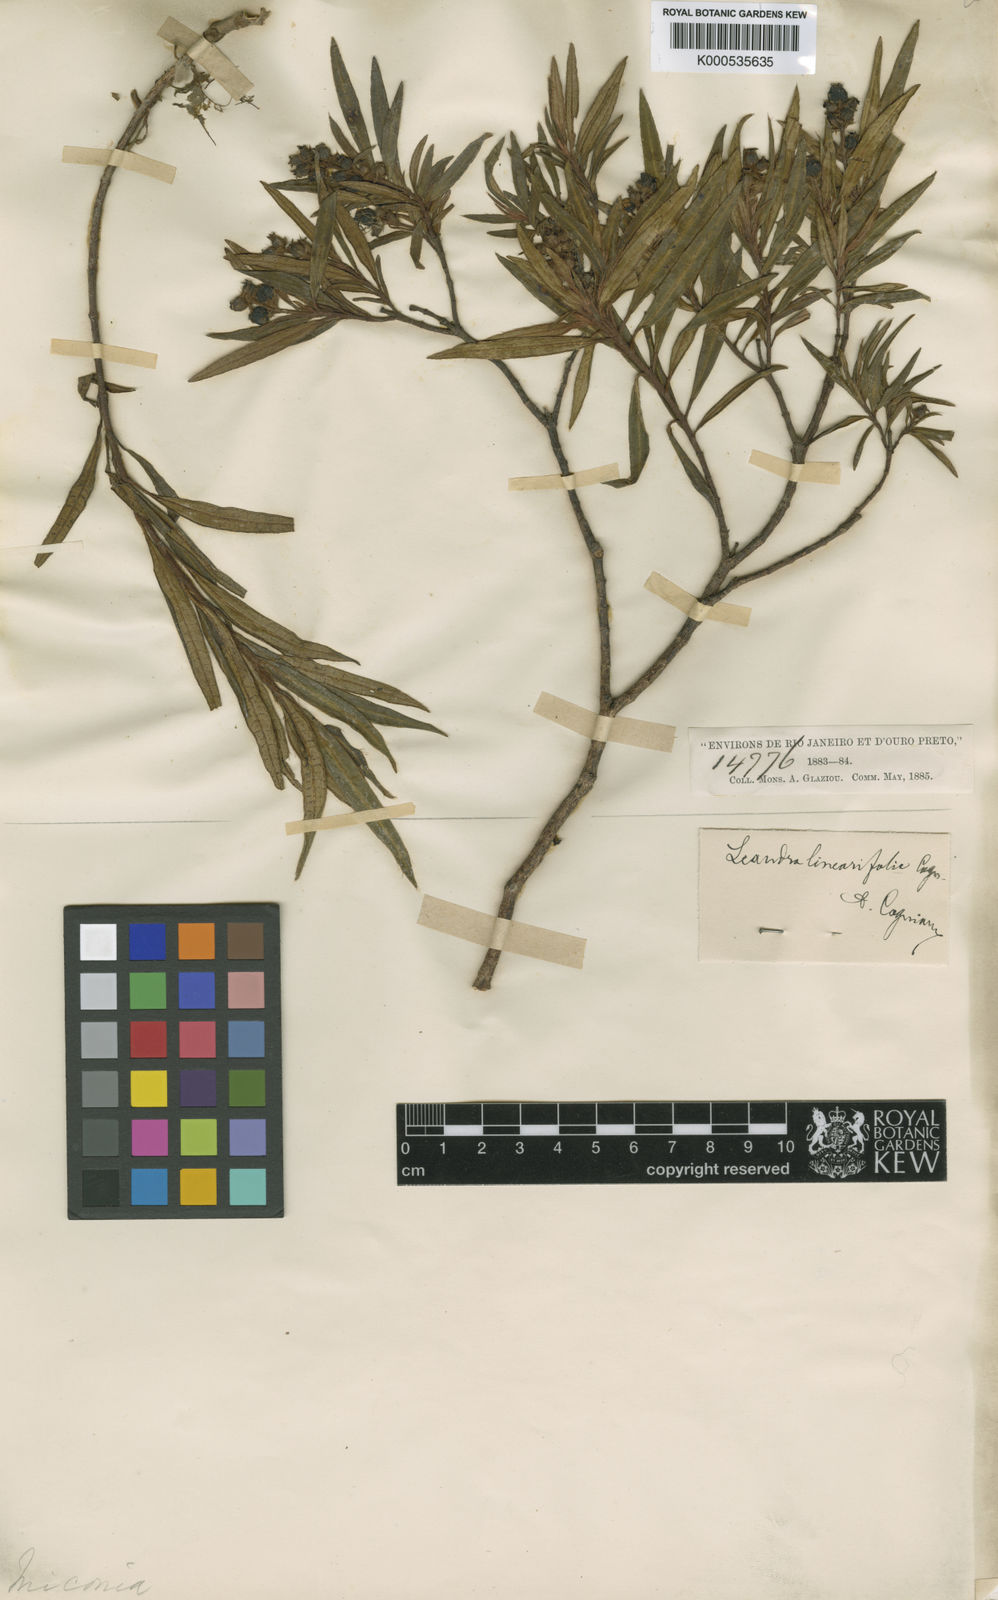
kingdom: Plantae
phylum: Tracheophyta
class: Magnoliopsida
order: Myrtales
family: Melastomataceae
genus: Miconia
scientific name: Miconia salicina
